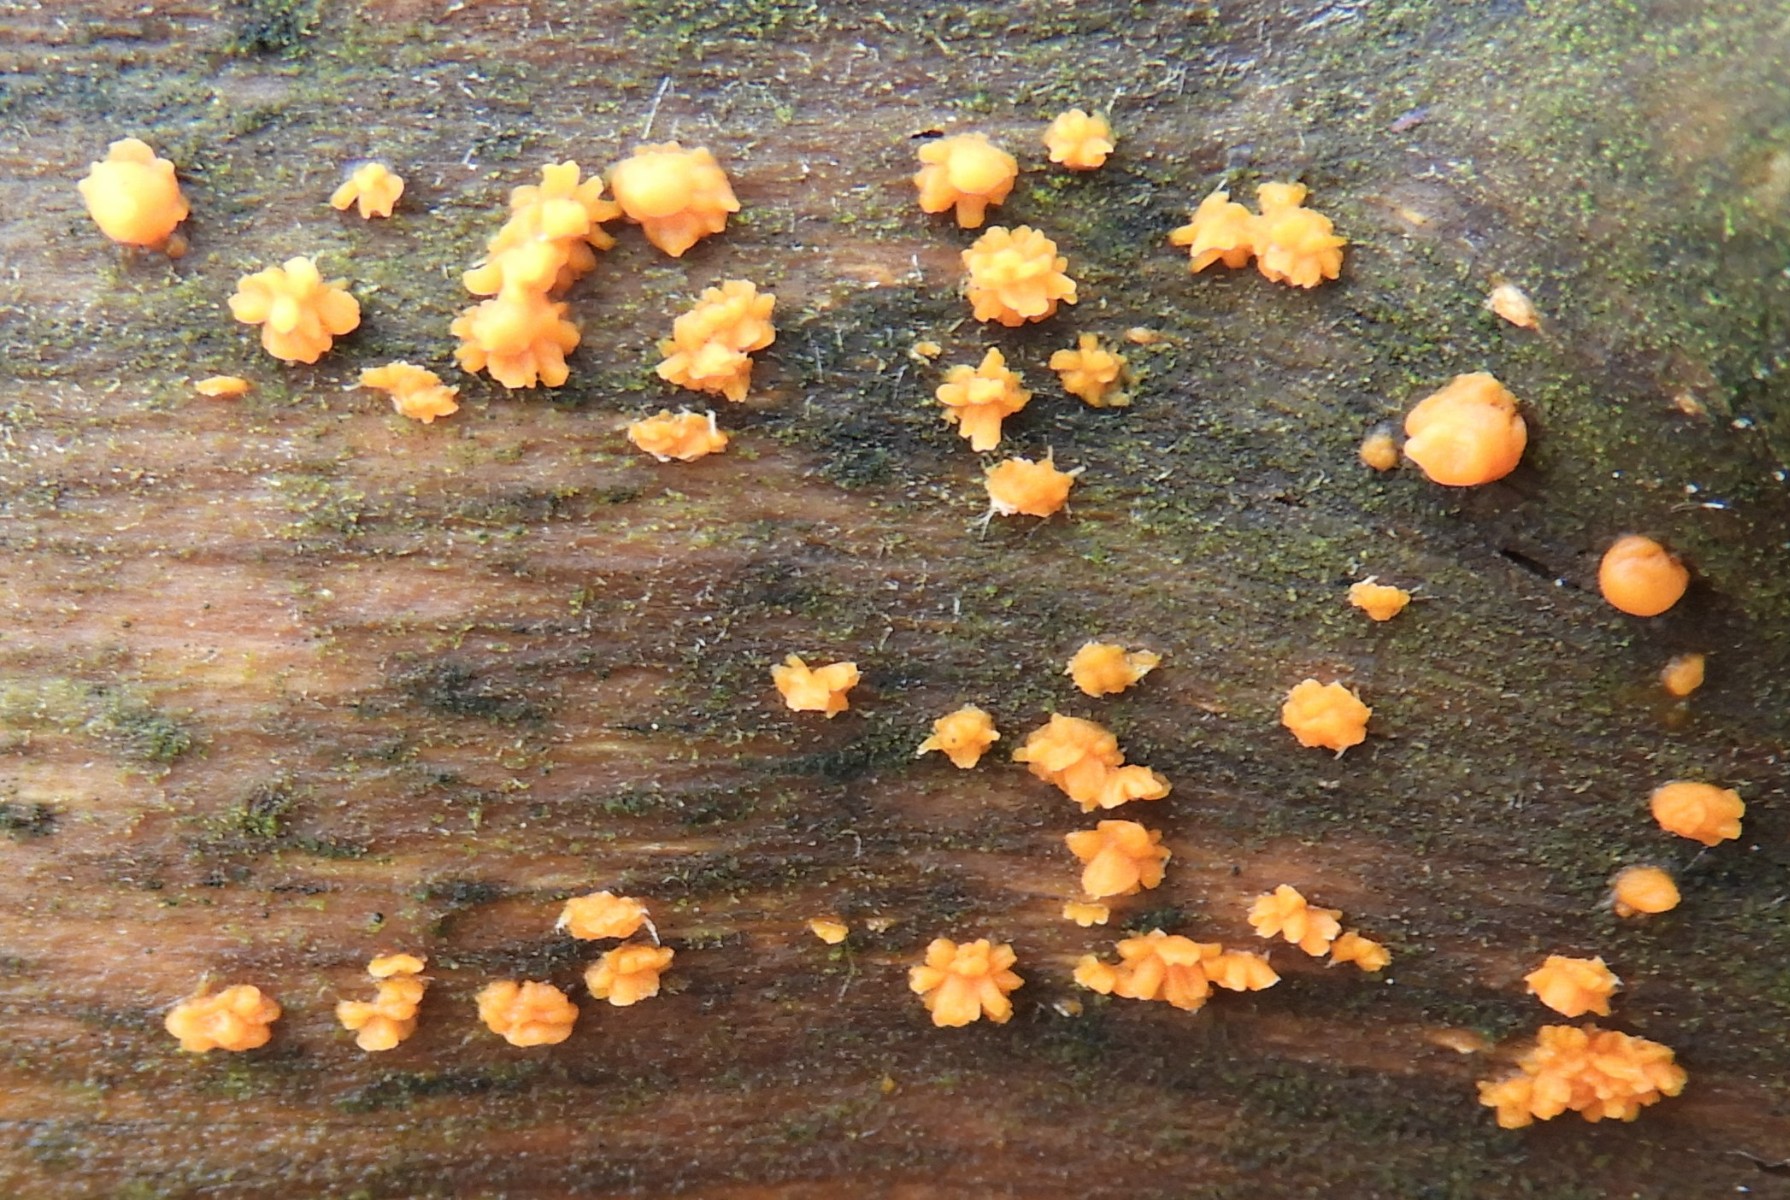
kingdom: Fungi
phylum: Basidiomycota
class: Dacrymycetes
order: Dacrymycetales
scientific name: Dacrymycetales
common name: tåresvampordenen
